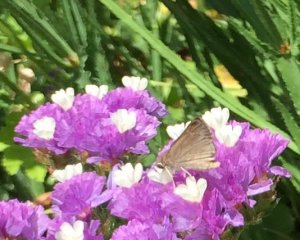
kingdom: Animalia
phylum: Arthropoda
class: Insecta
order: Lepidoptera
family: Hesperiidae
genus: Lerodea
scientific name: Lerodea eufala
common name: Eufala Skipper
